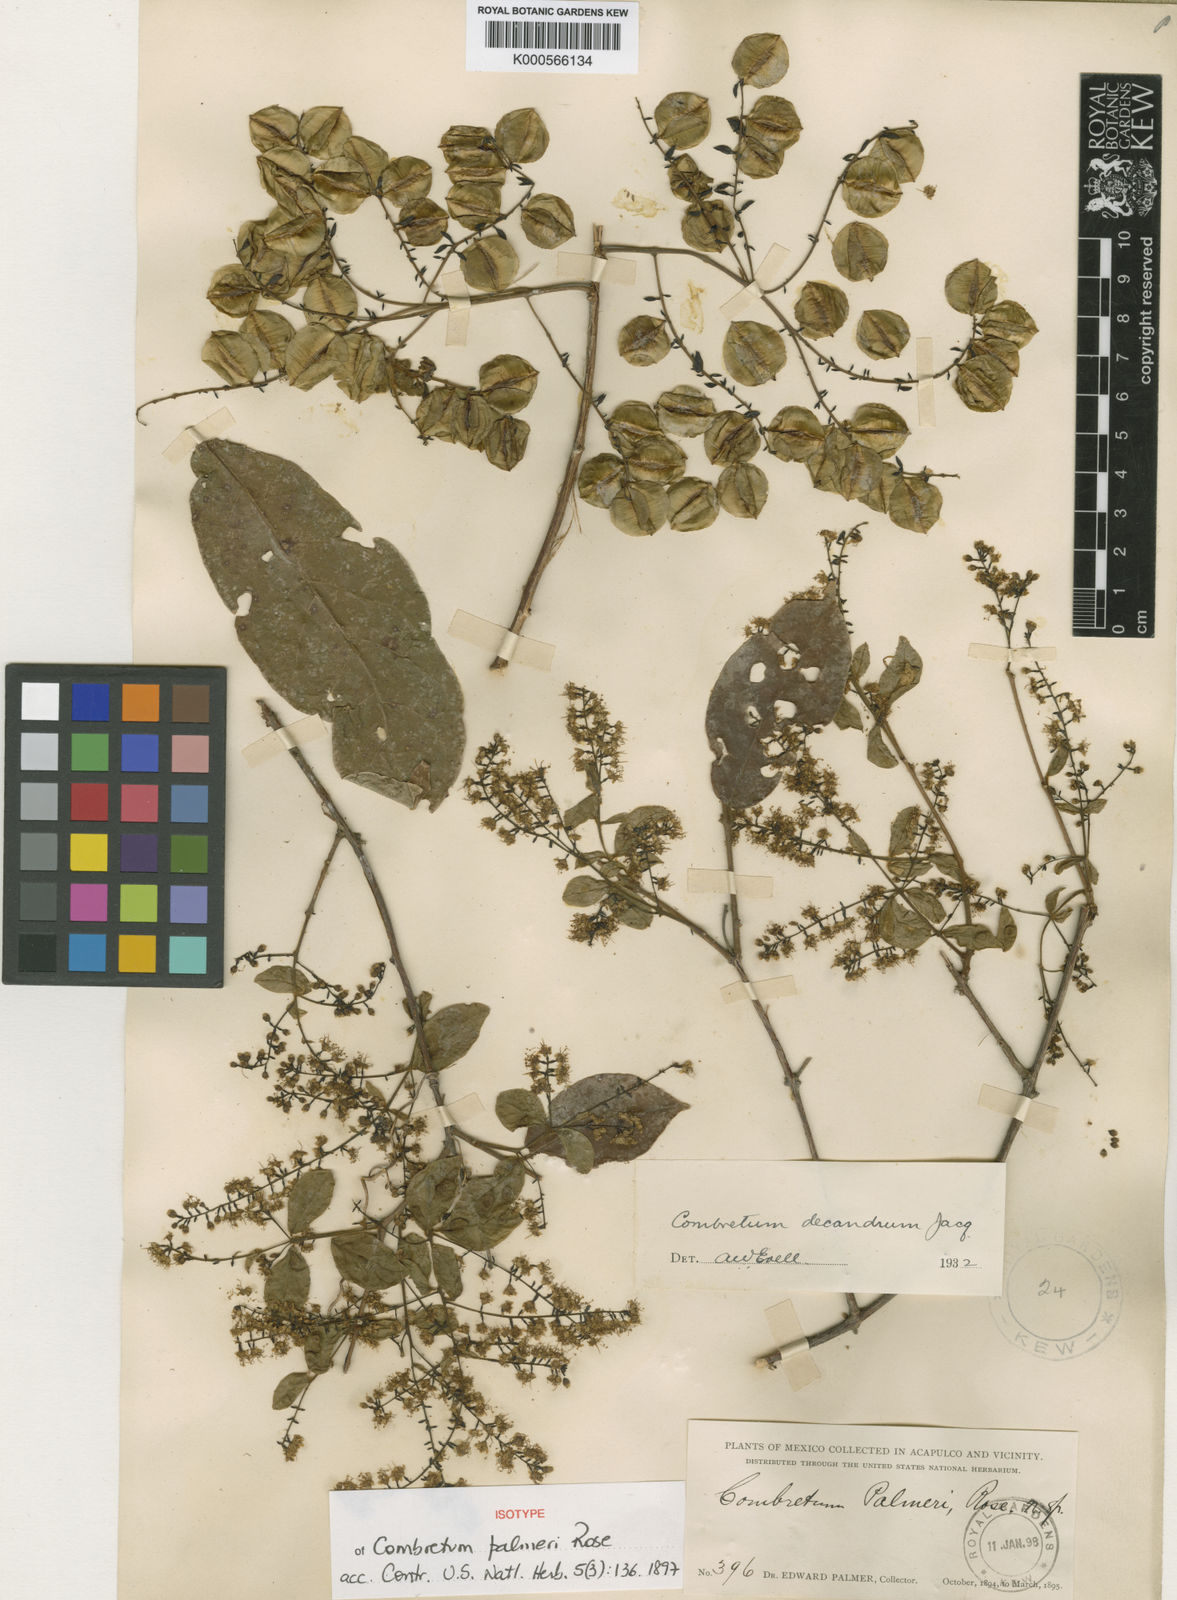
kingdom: Plantae
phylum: Tracheophyta
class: Magnoliopsida
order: Myrtales
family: Combretaceae
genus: Combretum
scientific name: Combretum decandrum
